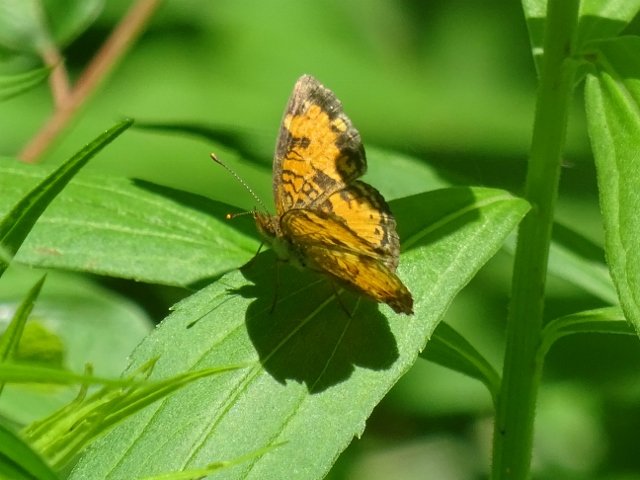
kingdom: Animalia
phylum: Arthropoda
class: Insecta
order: Lepidoptera
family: Nymphalidae
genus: Phyciodes
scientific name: Phyciodes tharos
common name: Northern Crescent
